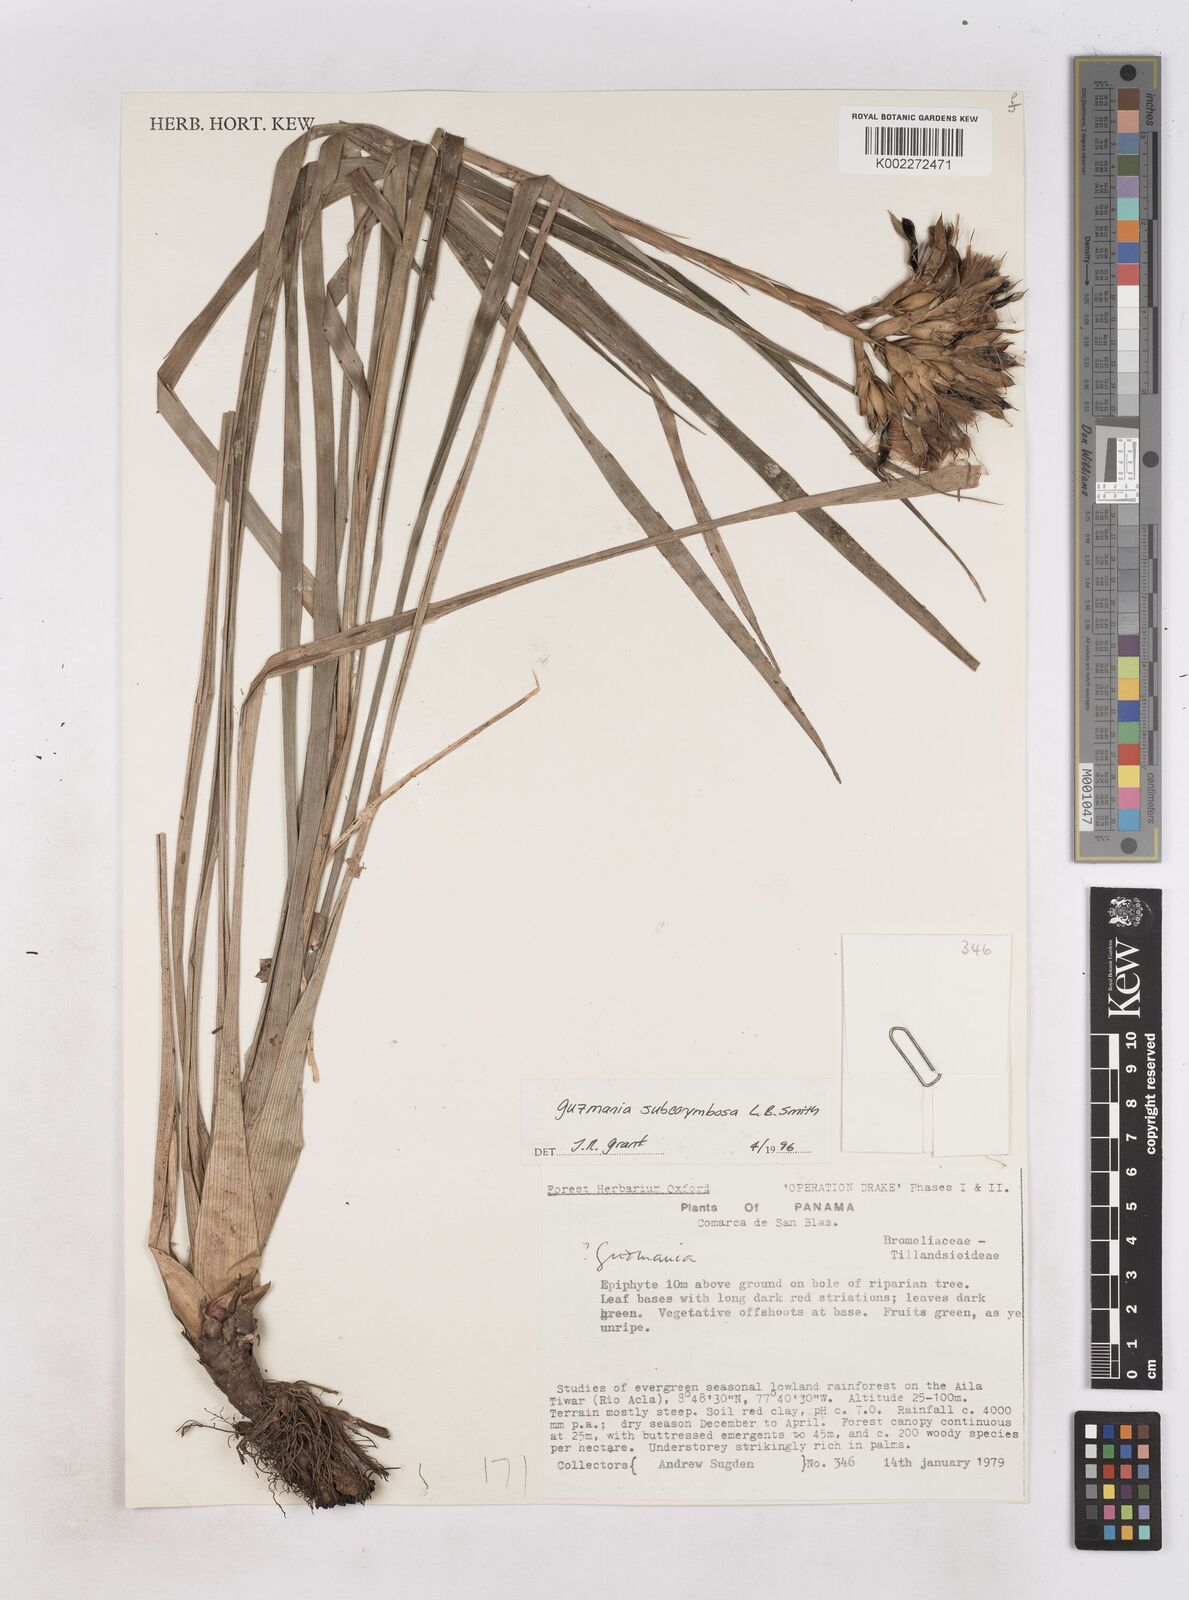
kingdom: Plantae
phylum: Tracheophyta
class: Liliopsida
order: Poales
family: Bromeliaceae
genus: Guzmania
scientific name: Guzmania subcorymbosa
